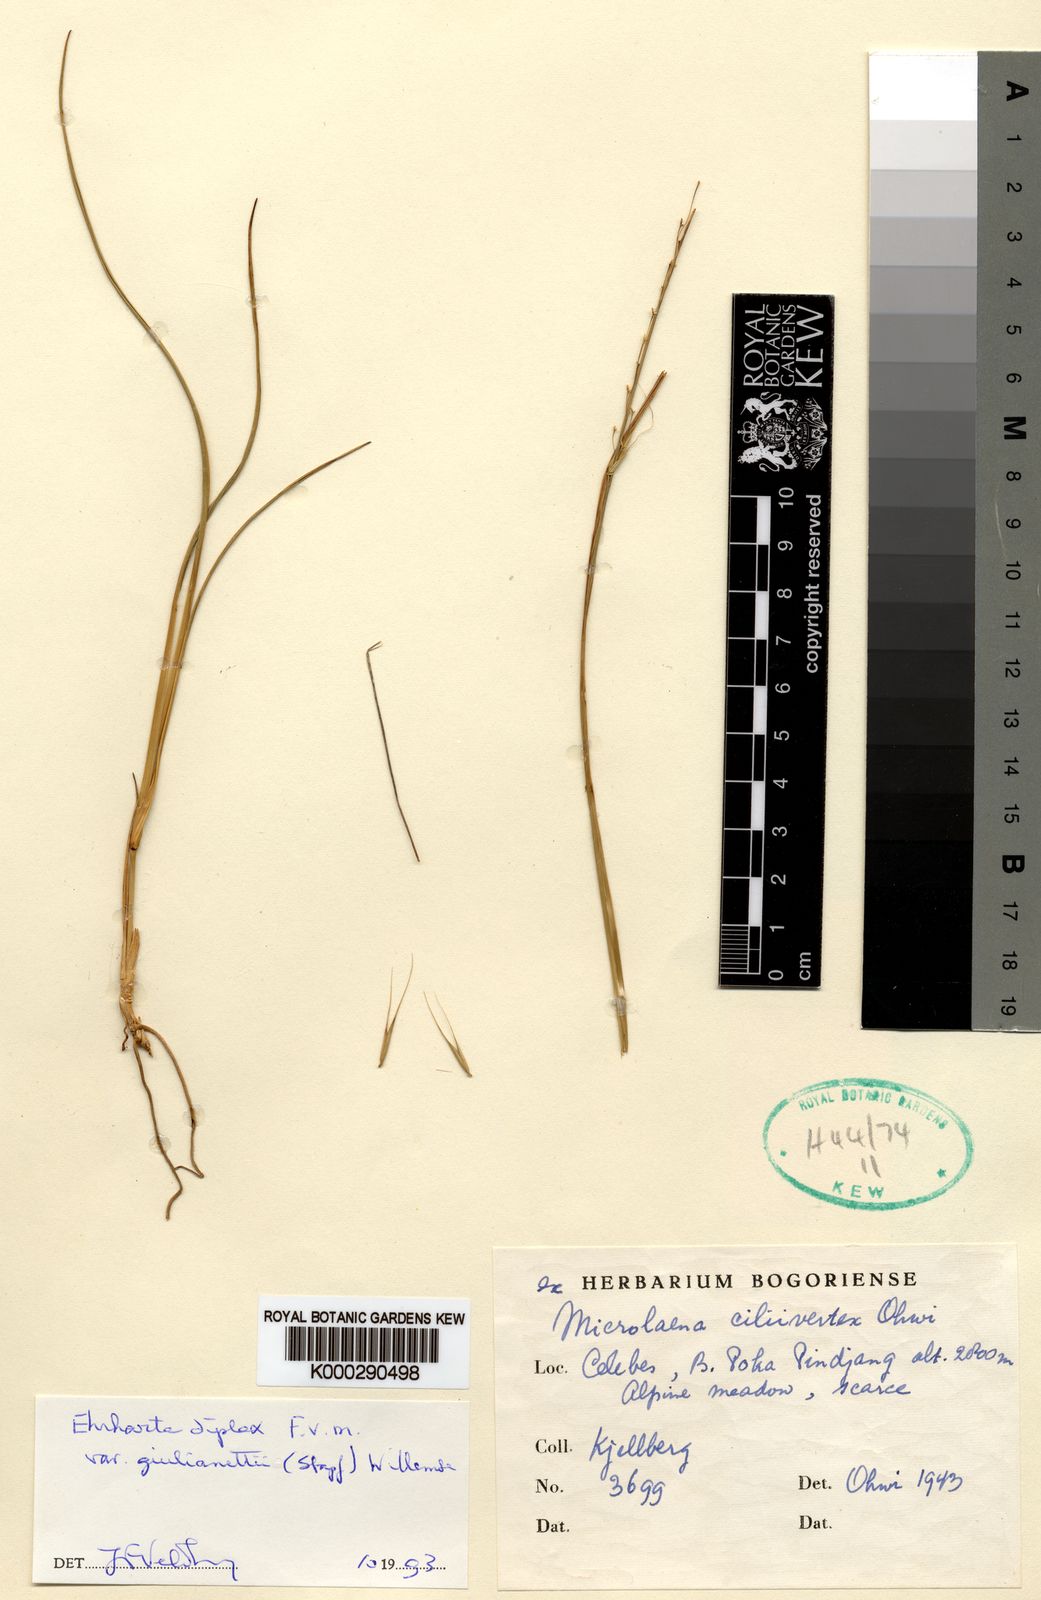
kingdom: Plantae
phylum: Tracheophyta
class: Liliopsida
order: Poales
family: Poaceae
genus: Ehrharta
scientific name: Ehrharta diplax
